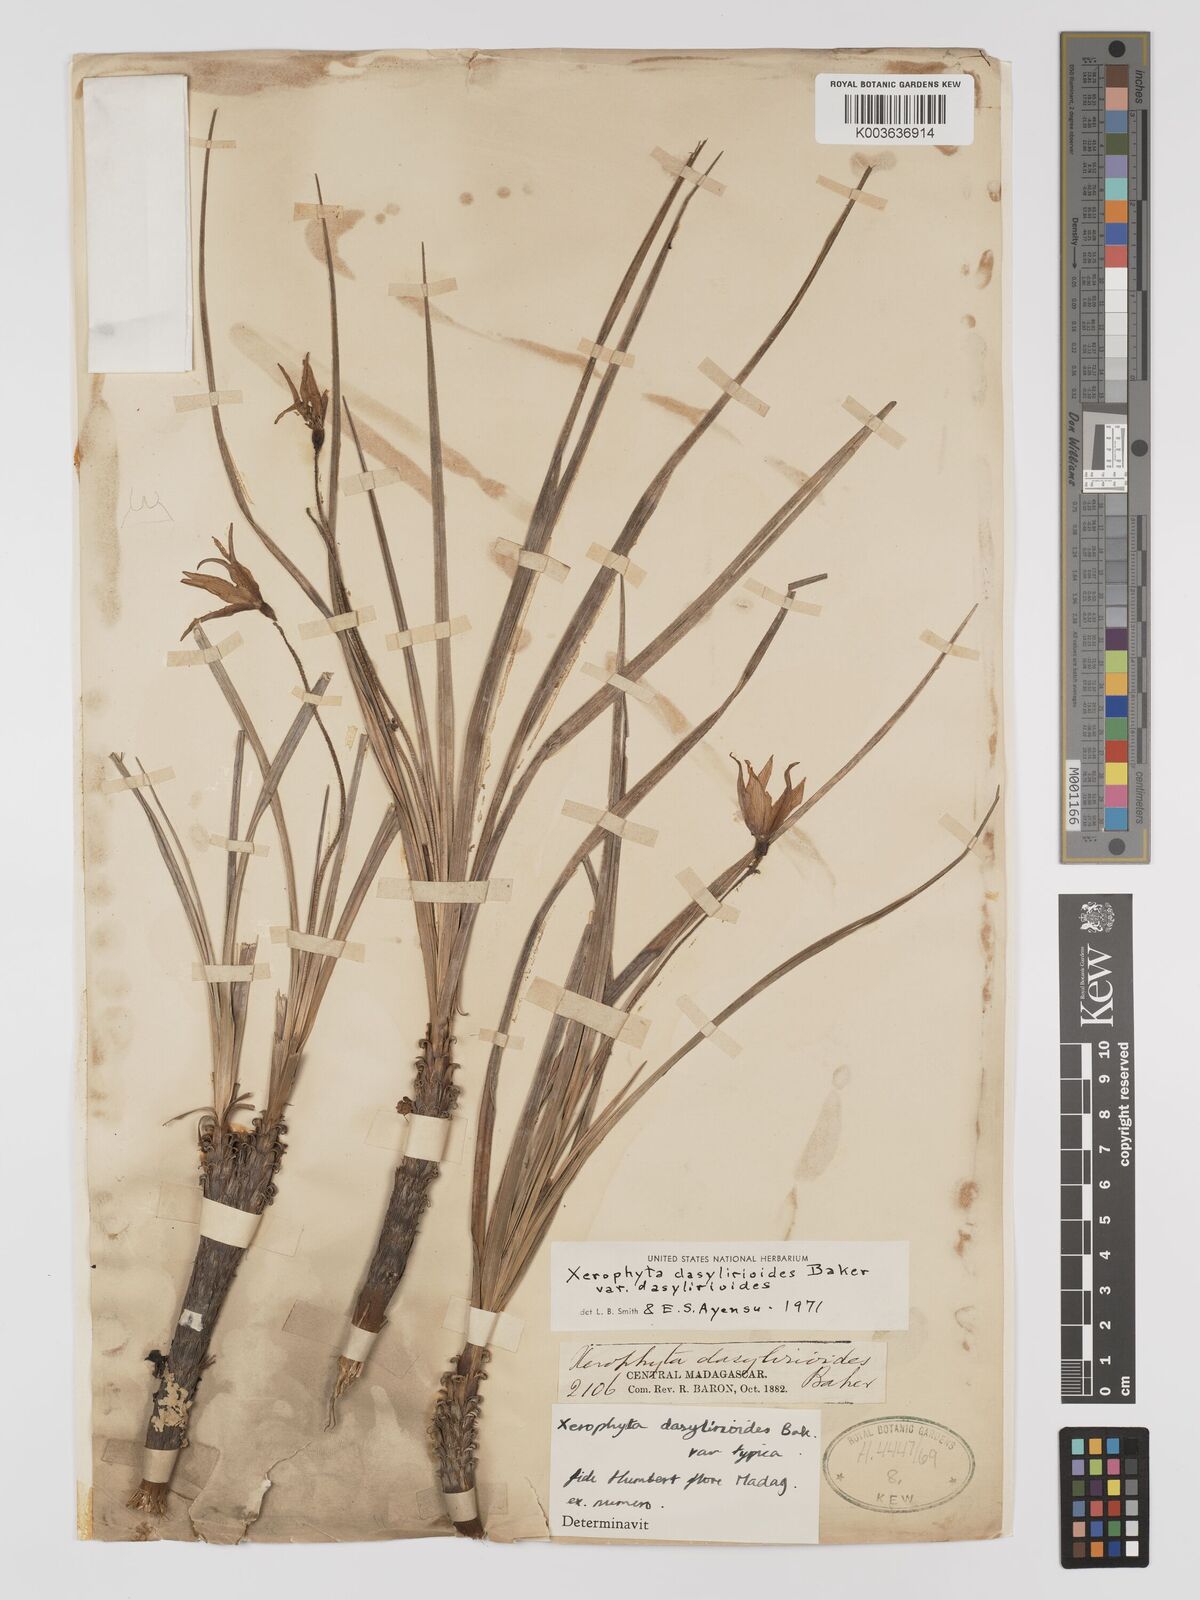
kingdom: Plantae
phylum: Tracheophyta
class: Liliopsida
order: Pandanales
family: Velloziaceae
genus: Xerophyta
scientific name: Xerophyta dasylirioides
